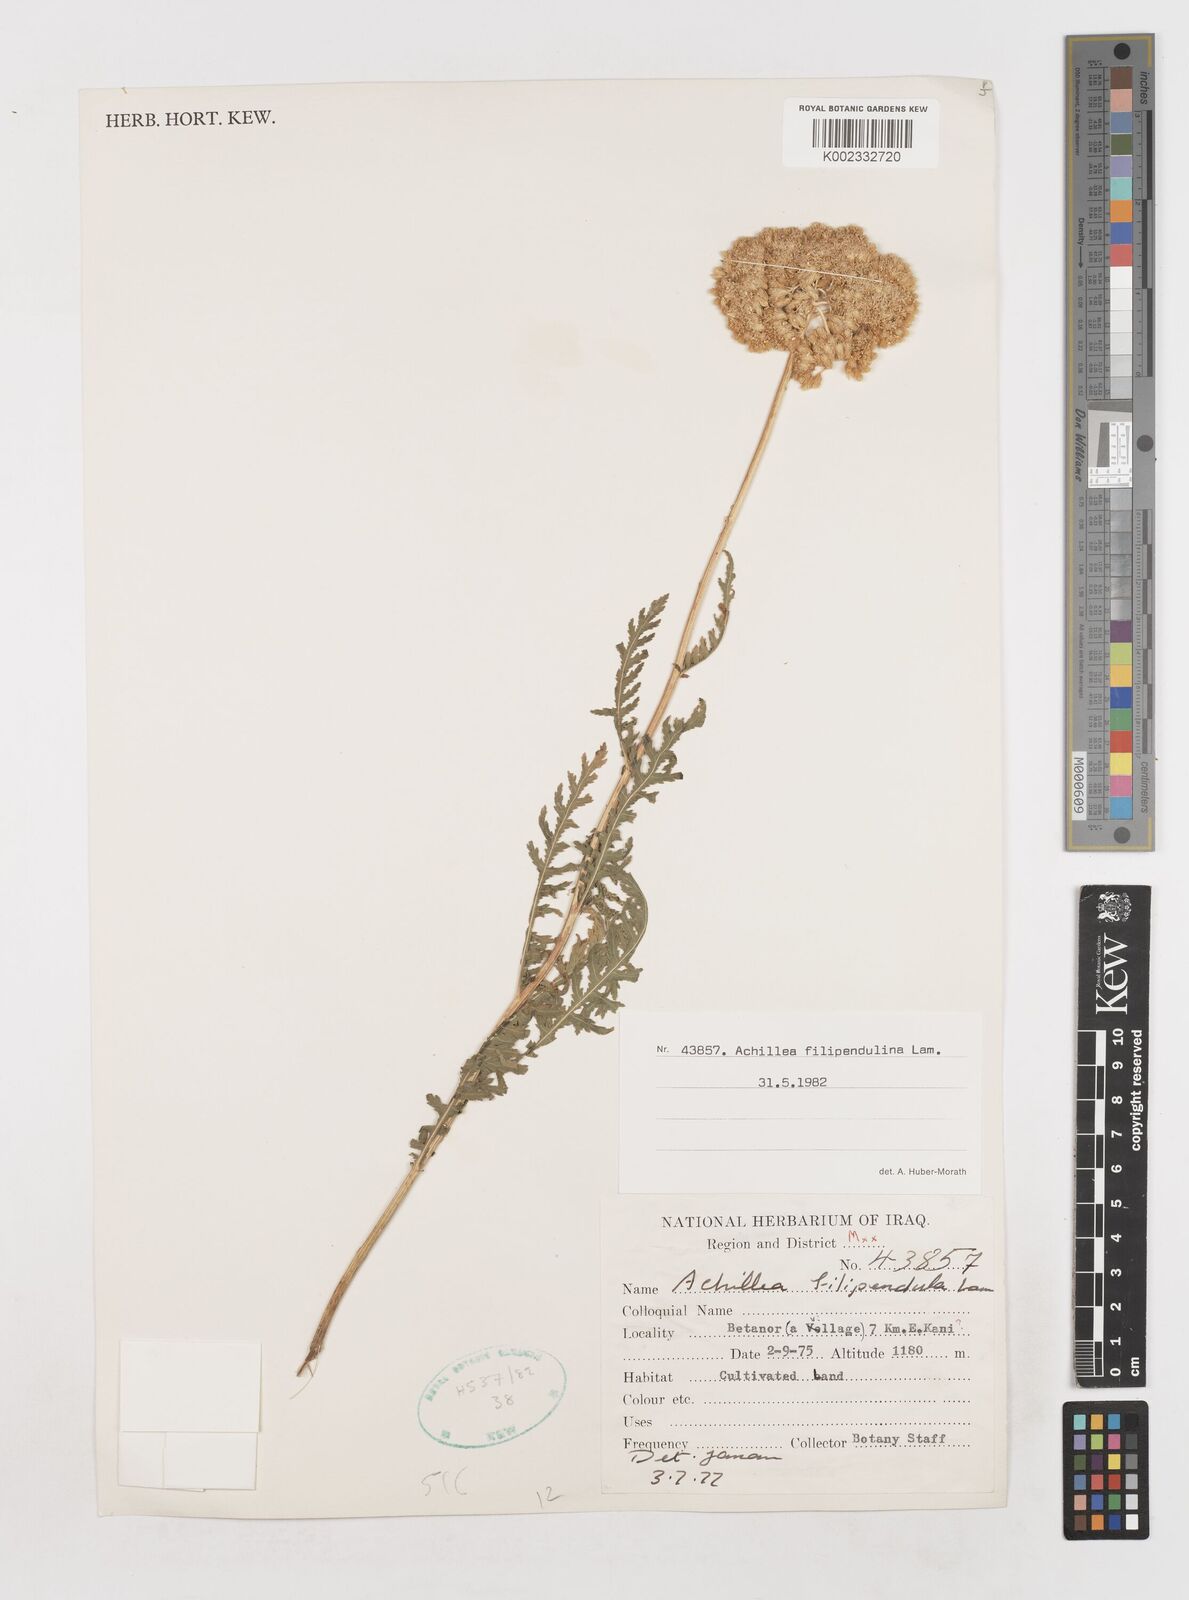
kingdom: Plantae
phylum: Tracheophyta
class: Magnoliopsida
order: Asterales
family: Asteraceae
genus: Achillea
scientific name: Achillea filipendulina
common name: Fernleaf yarrow
